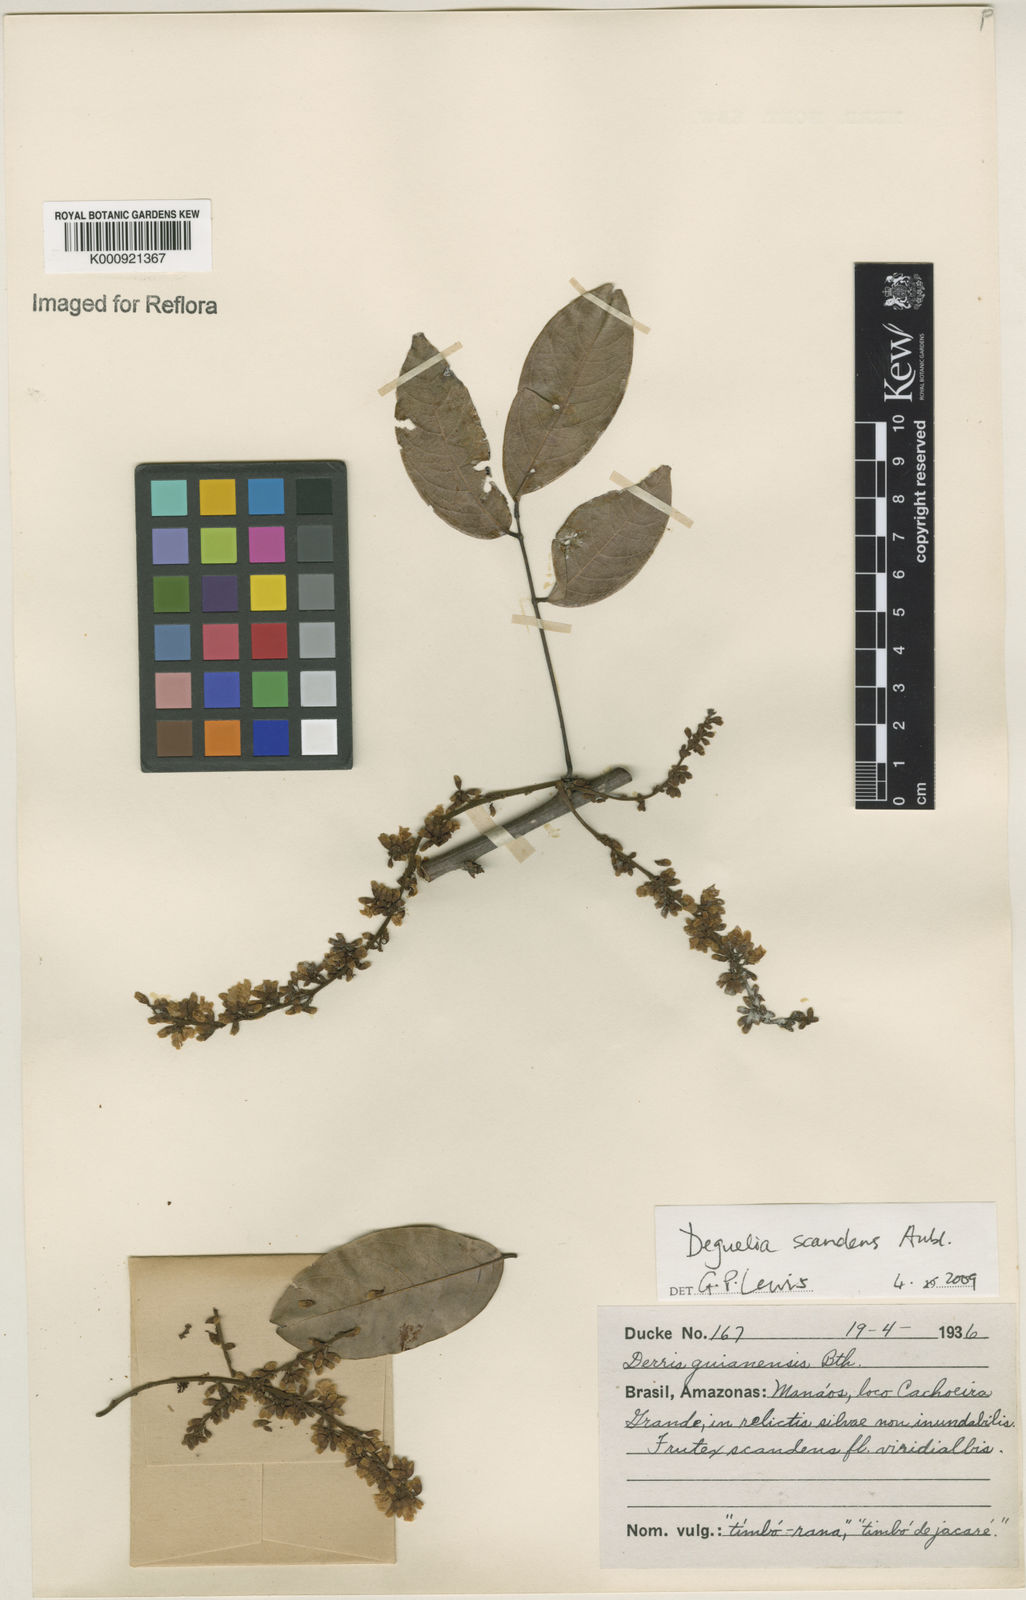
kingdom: Plantae
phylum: Tracheophyta
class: Magnoliopsida
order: Fabales
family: Fabaceae
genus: Deguelia
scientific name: Deguelia scandens
